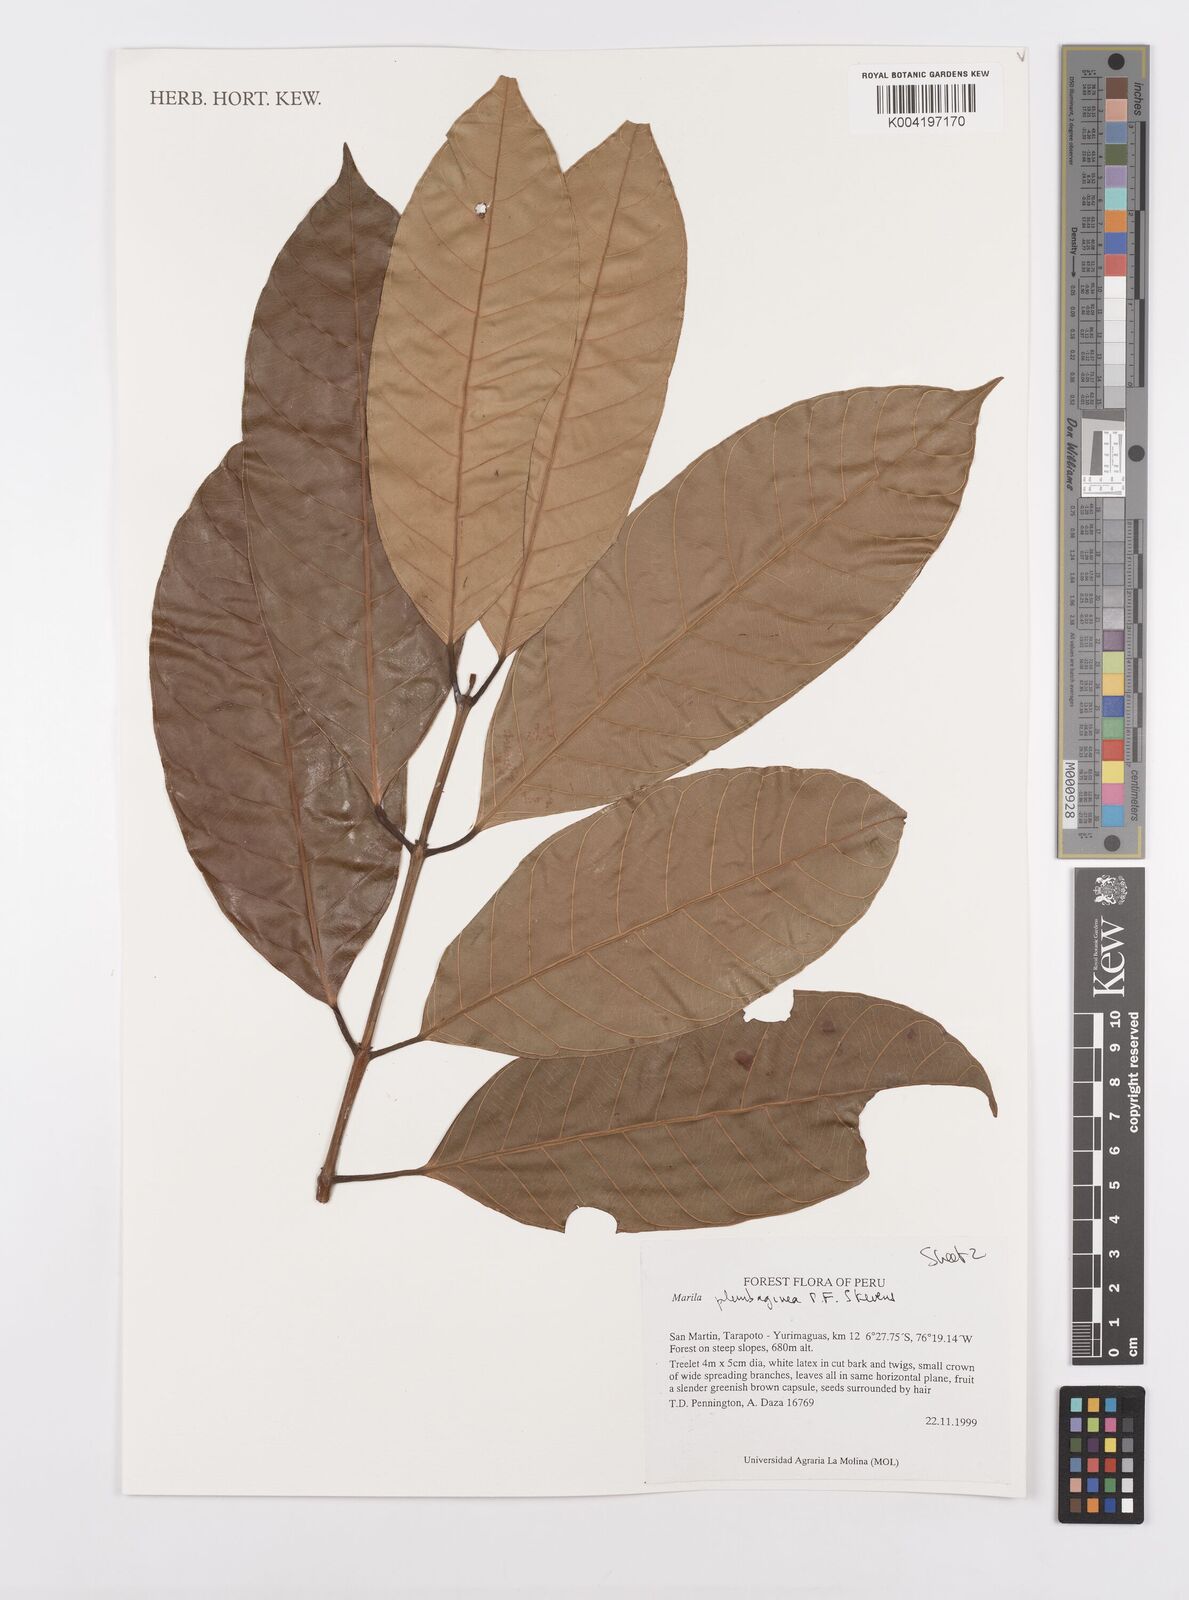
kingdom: Plantae
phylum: Tracheophyta
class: Magnoliopsida
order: Malpighiales
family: Calophyllaceae
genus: Marila
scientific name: Marila
